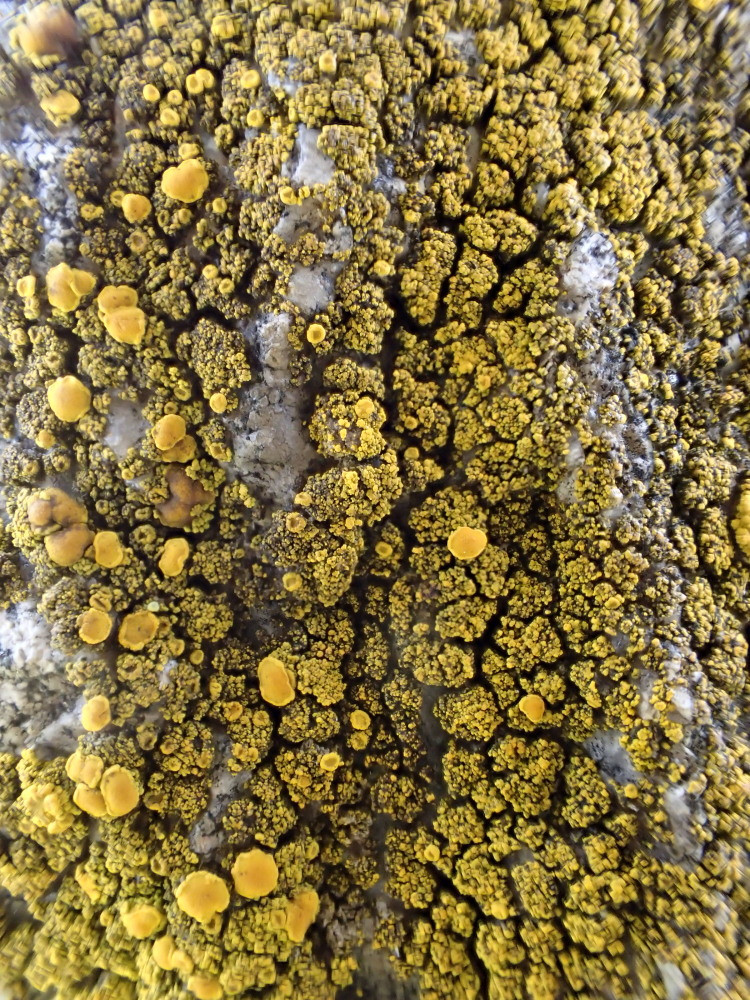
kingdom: Fungi
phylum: Ascomycota
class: Candelariomycetes
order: Candelariales
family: Candelariaceae
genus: Candelariella
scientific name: Candelariella vitellina
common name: almindelig æggeblommelav
